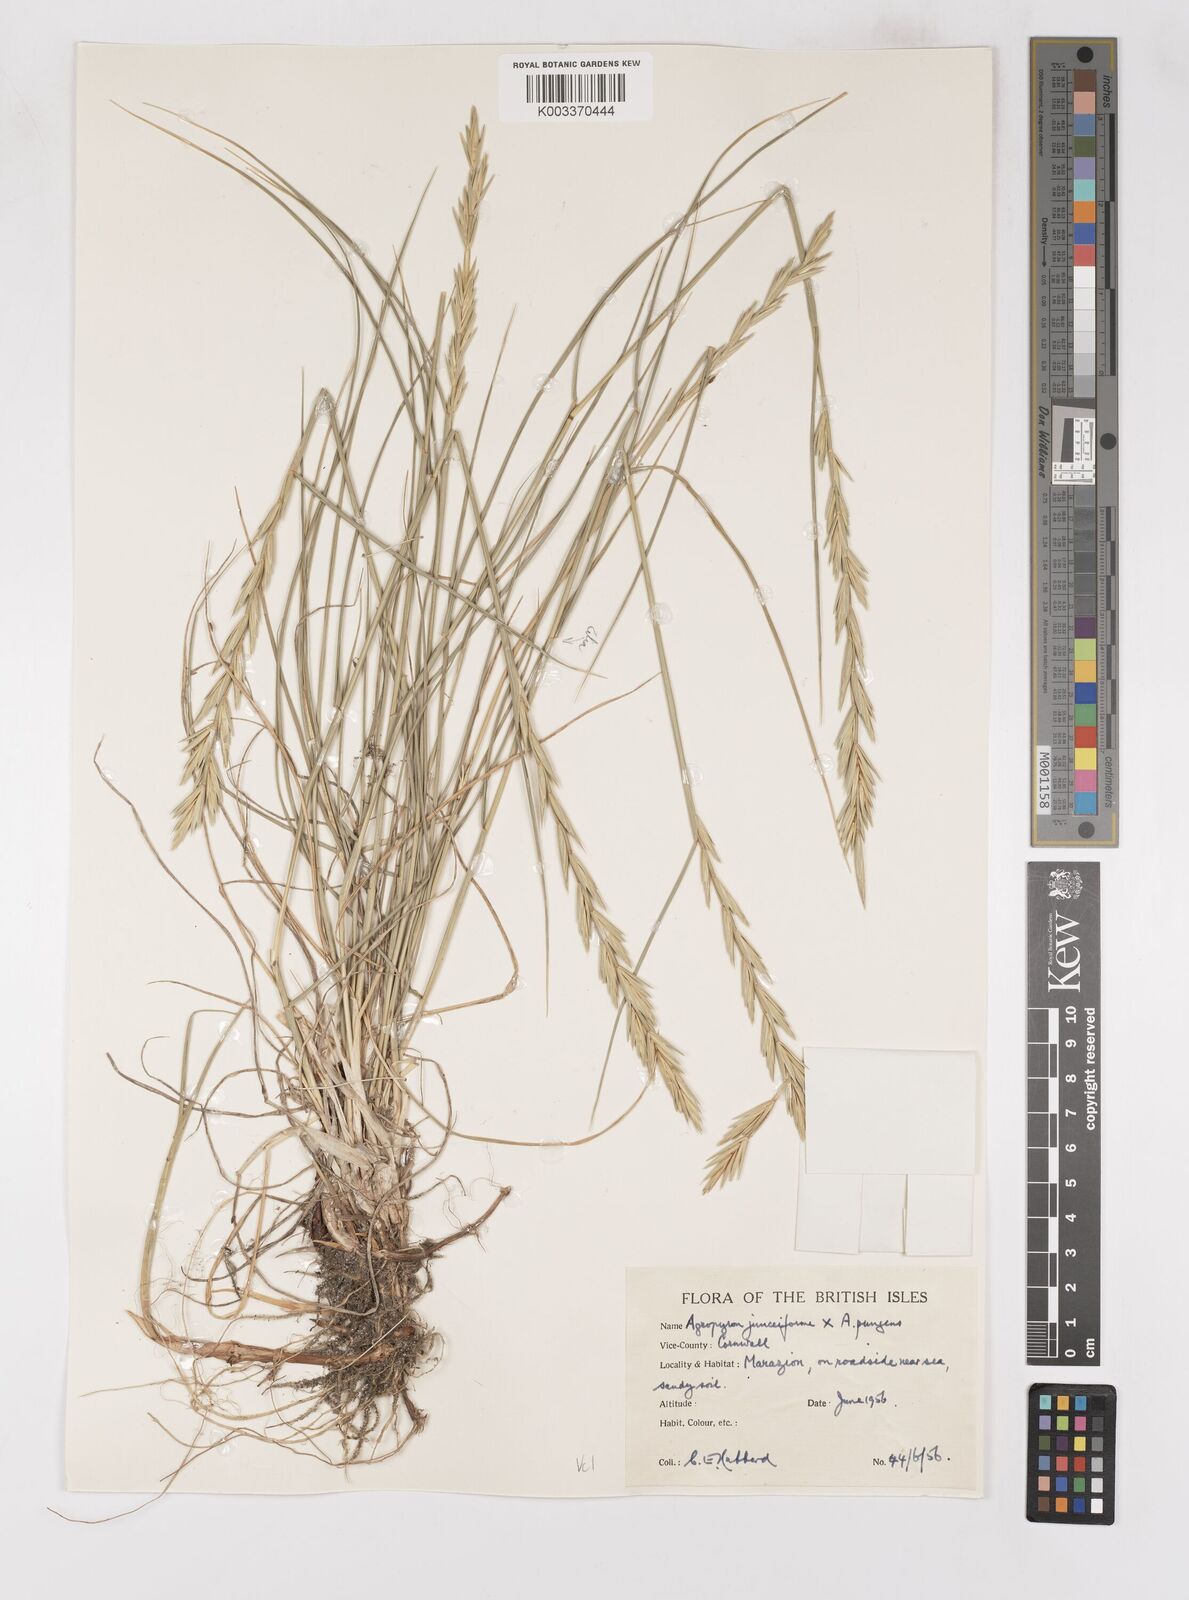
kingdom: Plantae
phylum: Tracheophyta
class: Liliopsida
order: Poales
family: Poaceae
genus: Thinoelymus
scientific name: Thinoelymus obtusiusculus
